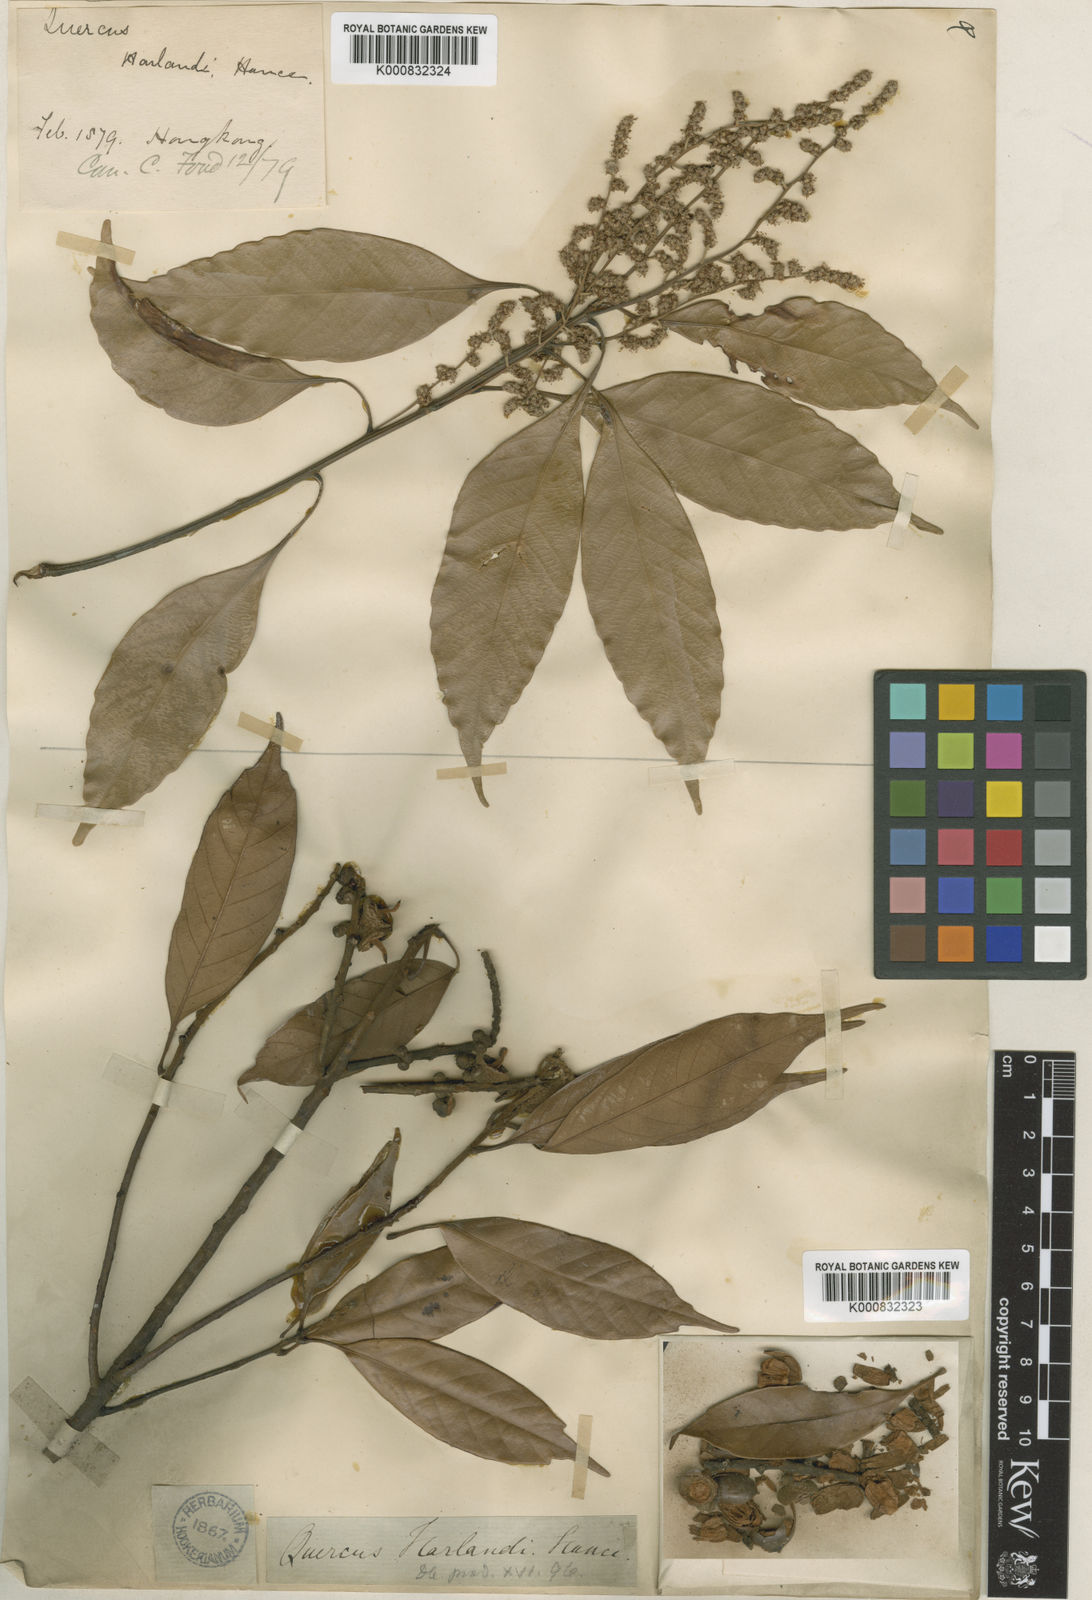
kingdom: Plantae
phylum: Tracheophyta
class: Magnoliopsida
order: Fagales
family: Fagaceae
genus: Lithocarpus
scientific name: Lithocarpus harlandii
